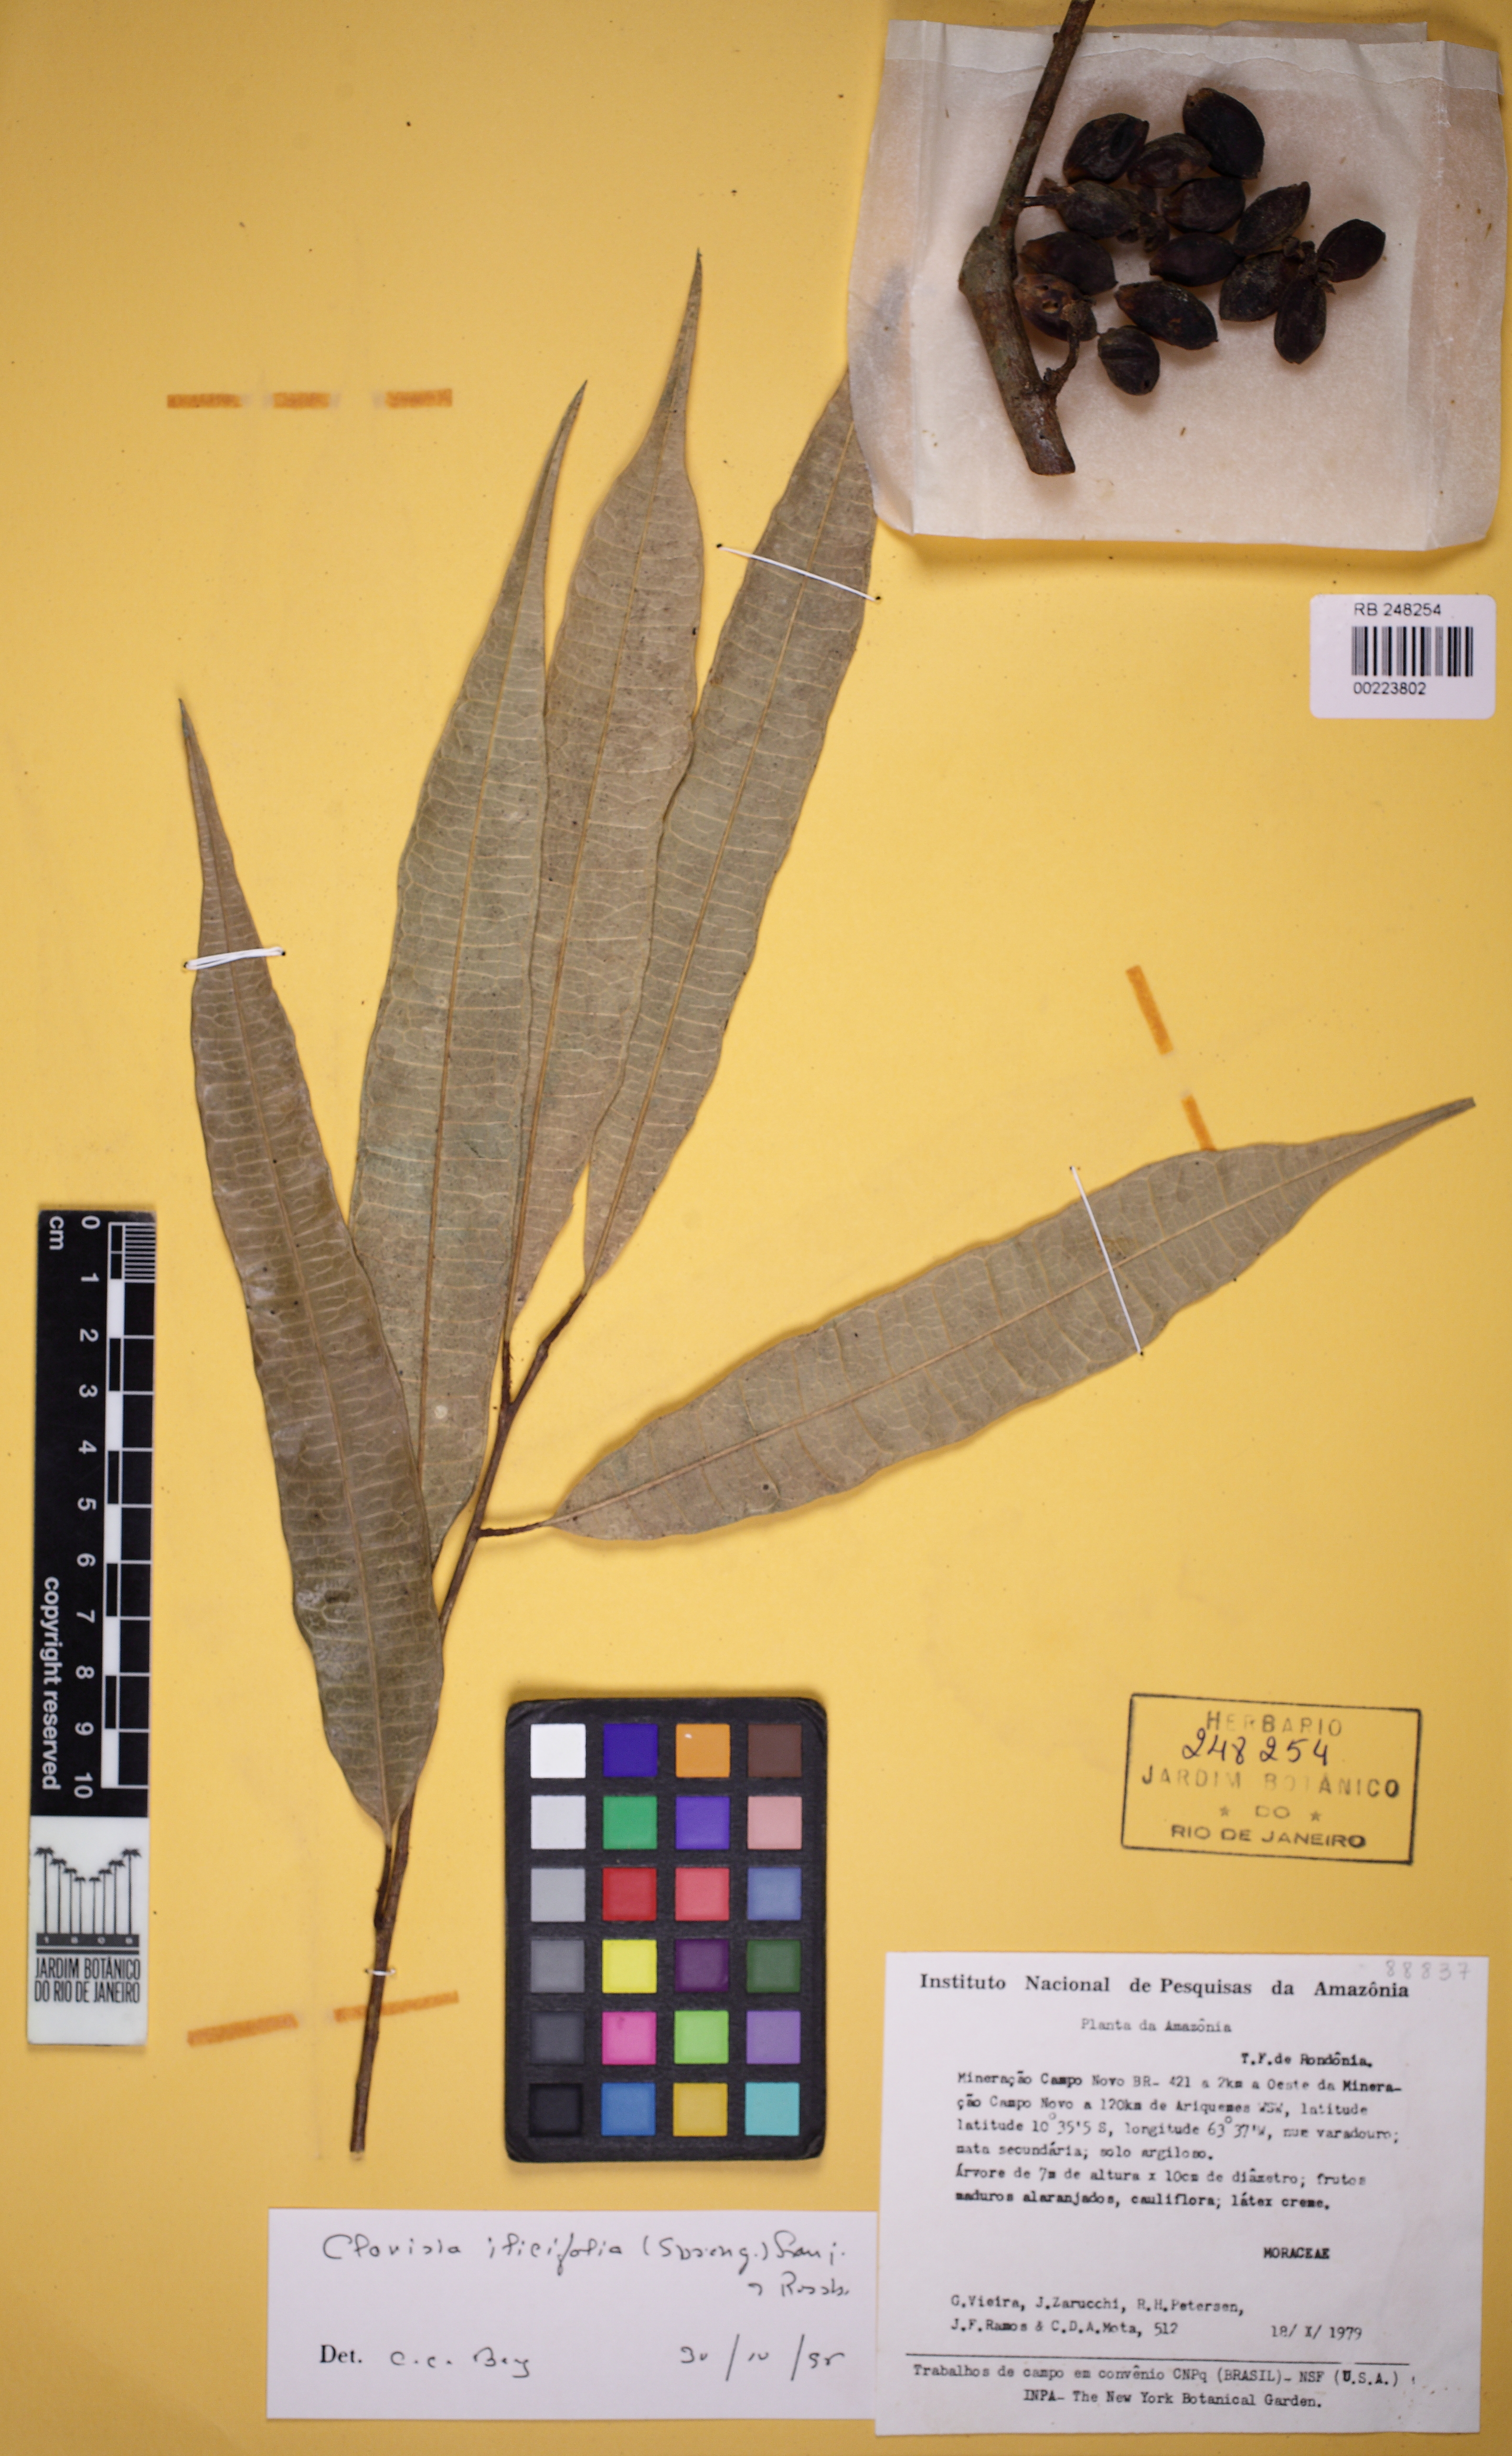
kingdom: Plantae
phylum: Tracheophyta
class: Magnoliopsida
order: Rosales
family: Moraceae
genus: Clarisia
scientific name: Clarisia ilicifolia
